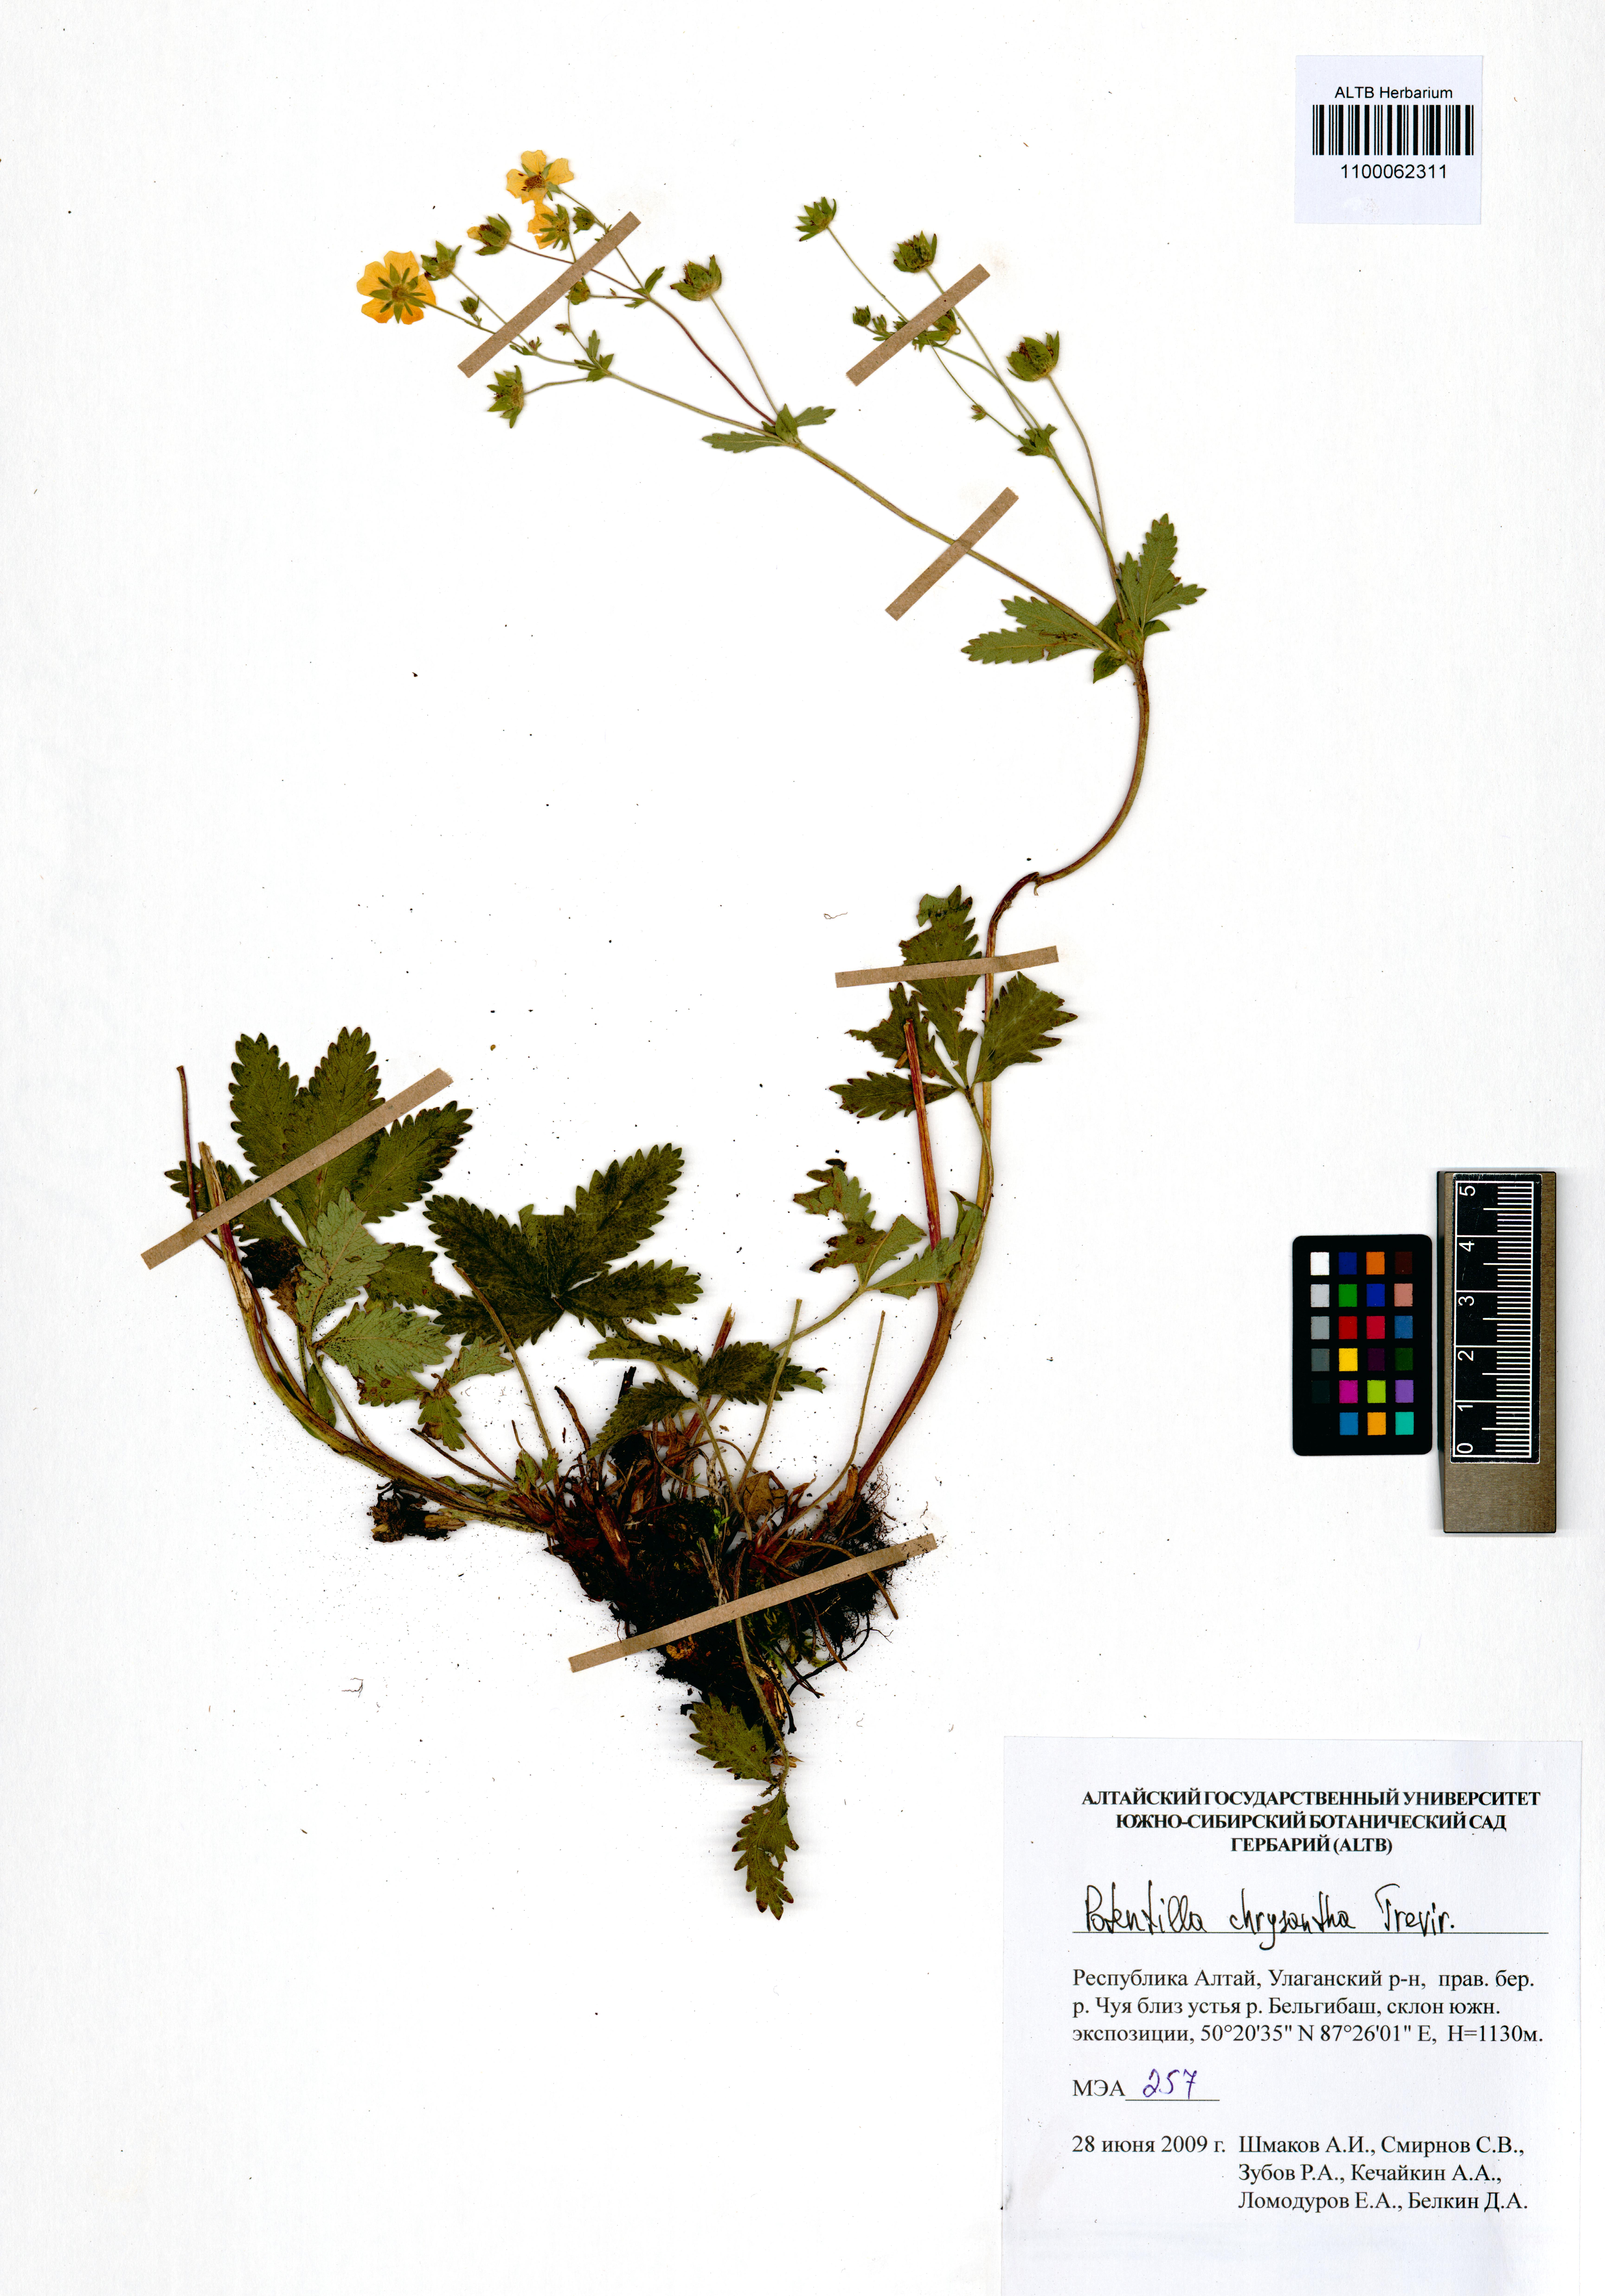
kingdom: Plantae
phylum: Tracheophyta
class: Magnoliopsida
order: Rosales
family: Rosaceae
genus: Potentilla
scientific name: Potentilla chrysantha
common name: Thuringian cinquefoil
